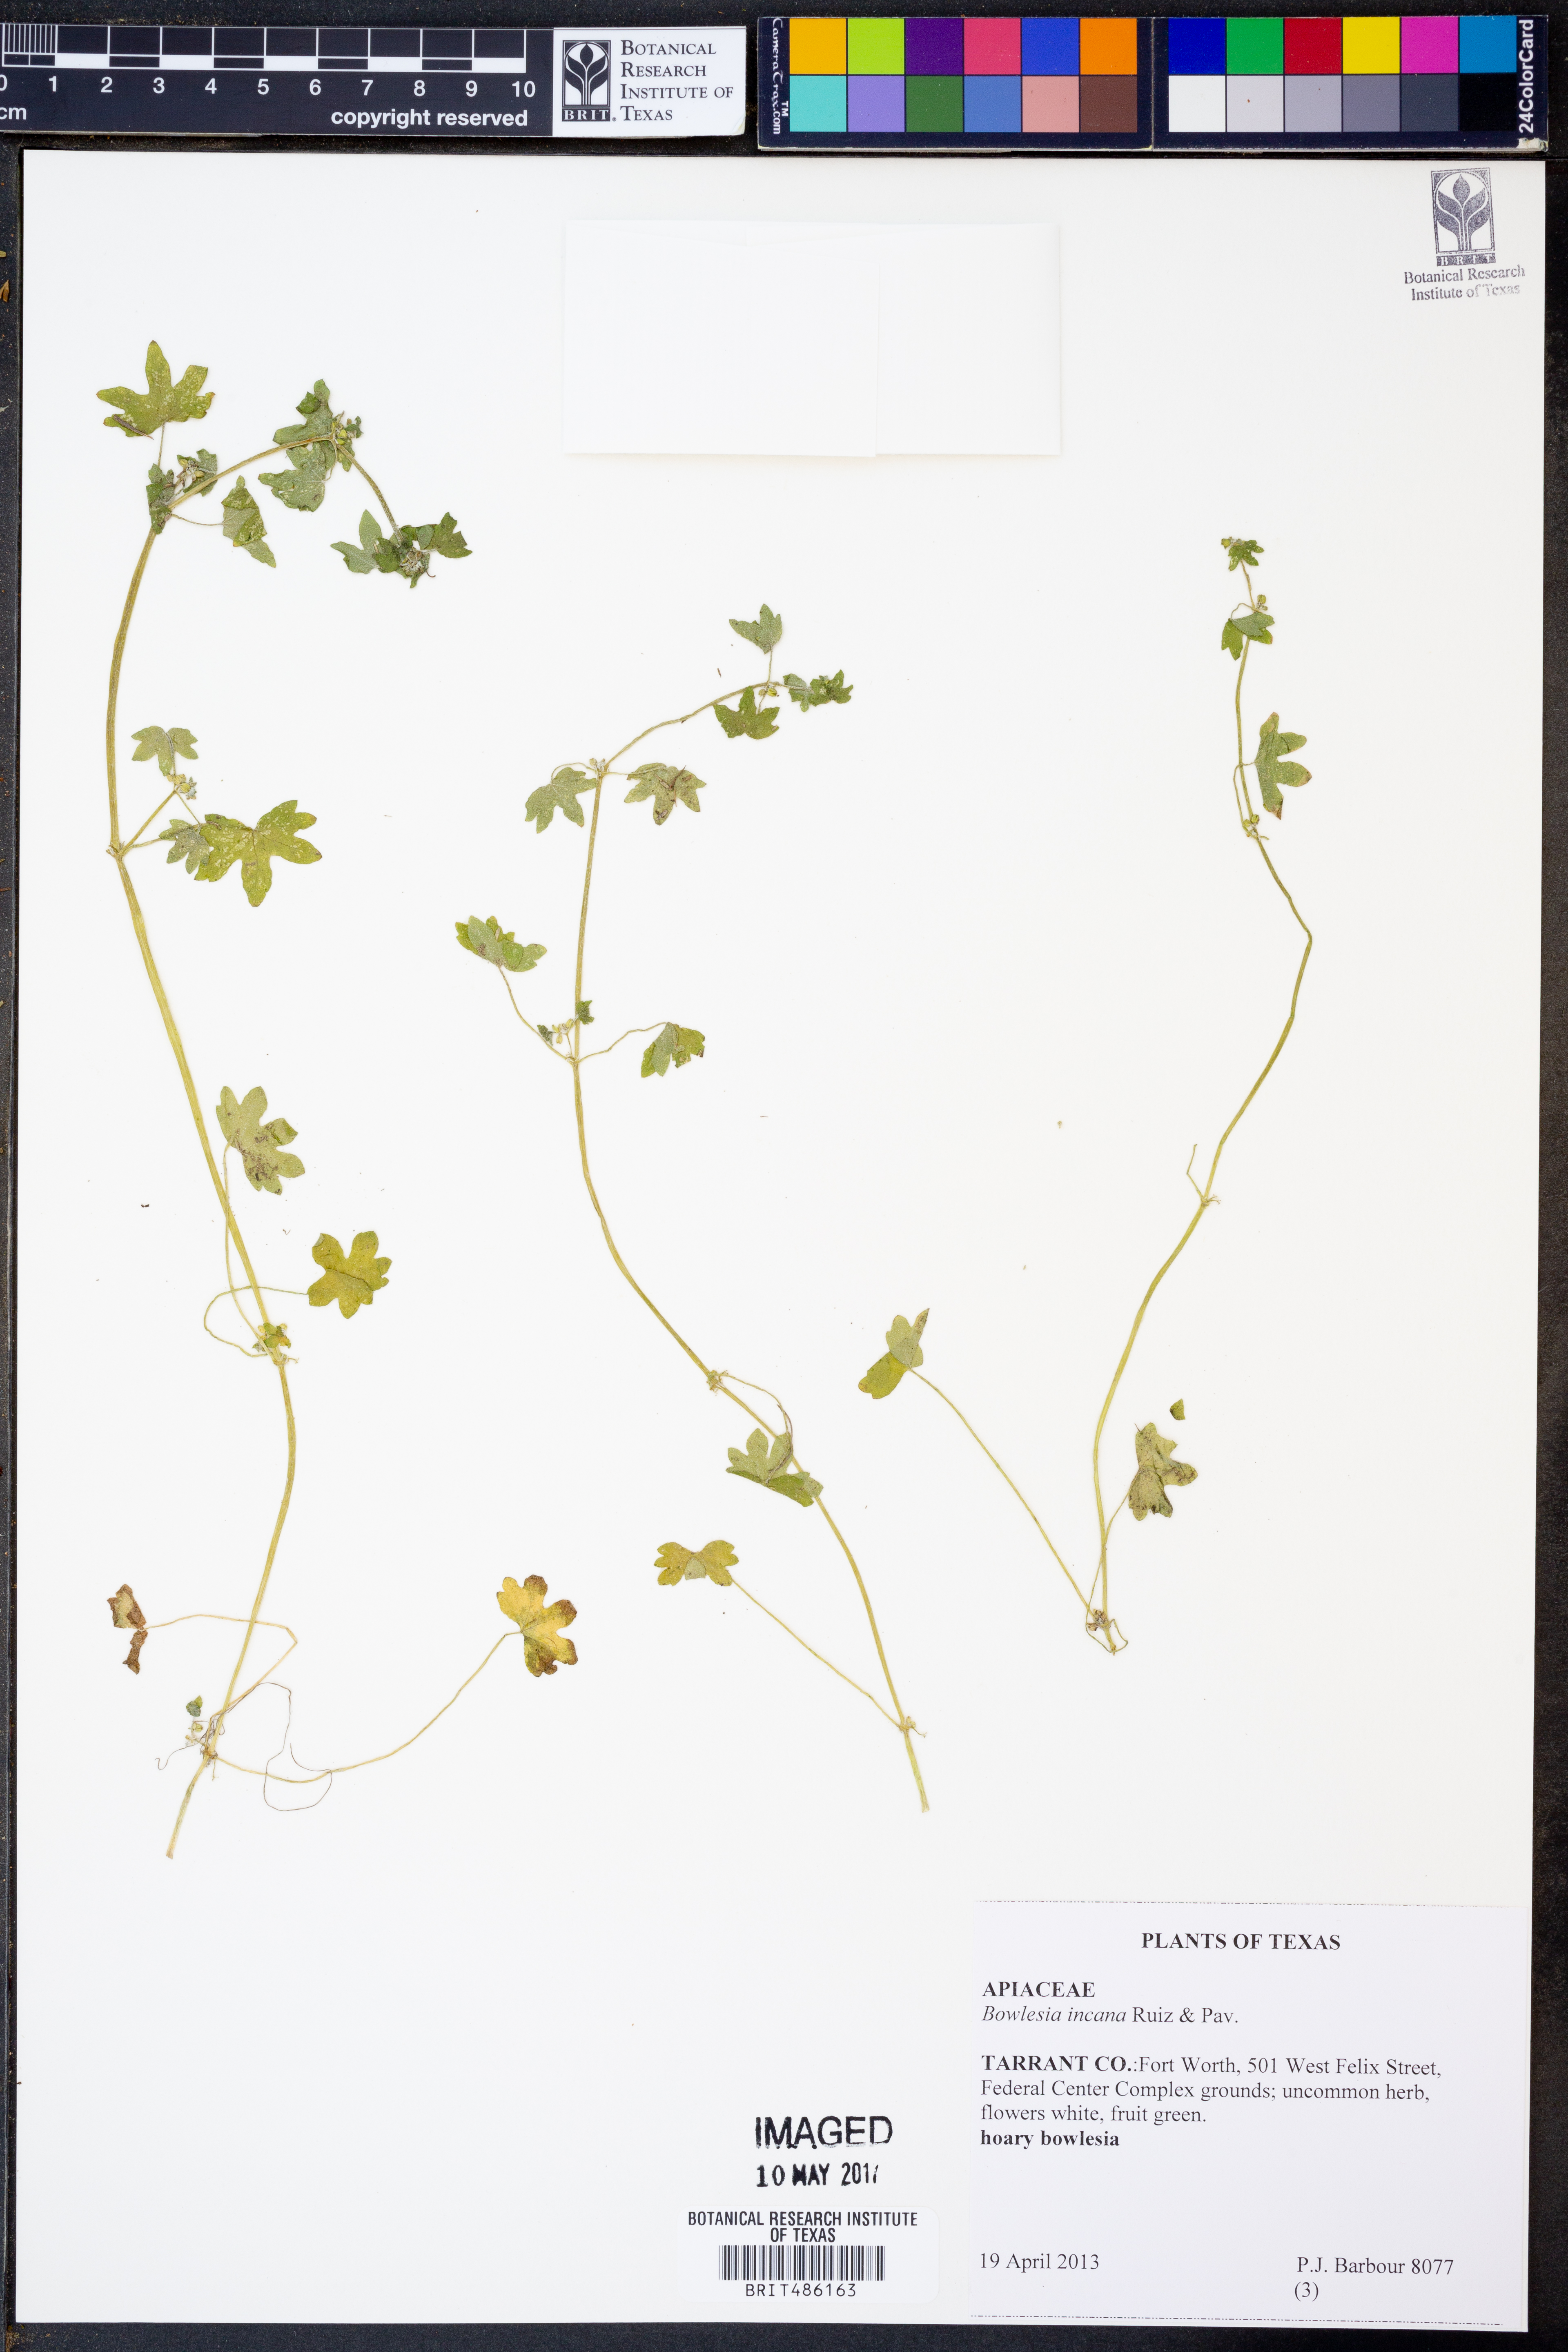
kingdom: Plantae
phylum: Tracheophyta
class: Magnoliopsida
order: Apiales
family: Apiaceae
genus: Bowlesia
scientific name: Bowlesia incana
